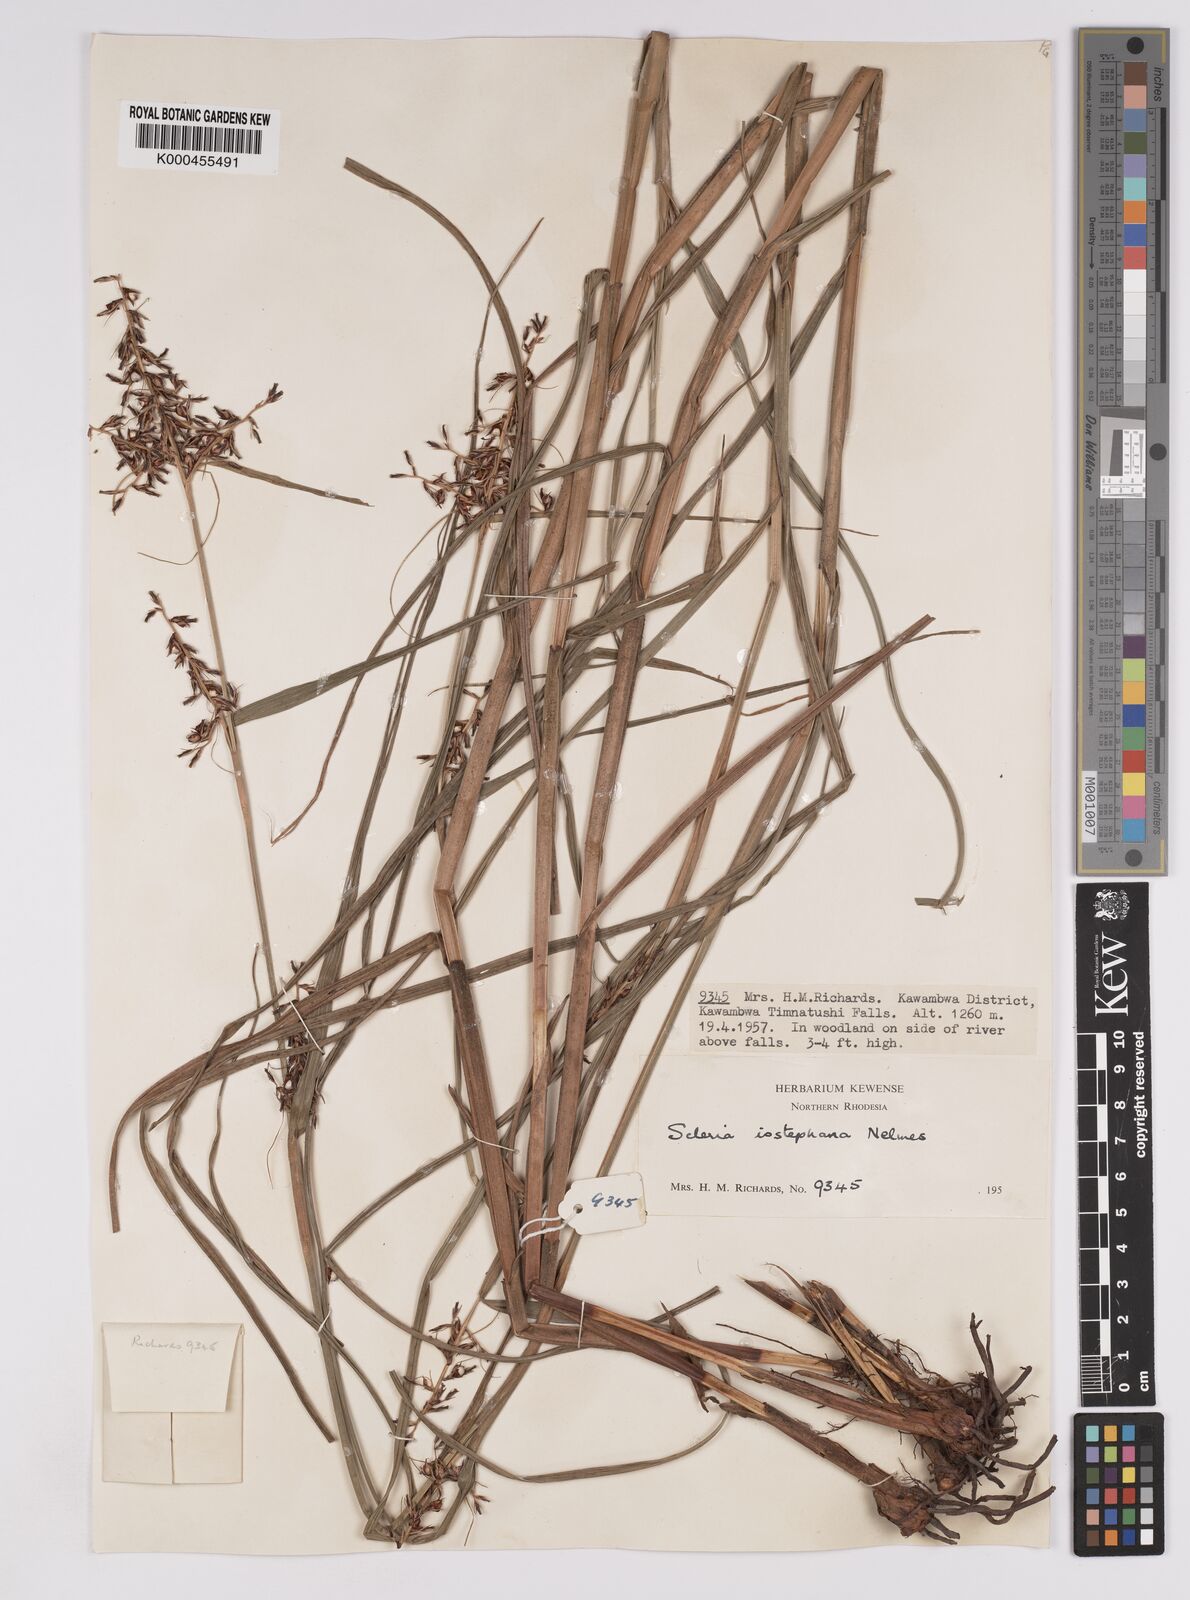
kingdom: Plantae
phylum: Tracheophyta
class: Liliopsida
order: Poales
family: Cyperaceae
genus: Scleria
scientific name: Scleria iostephana
